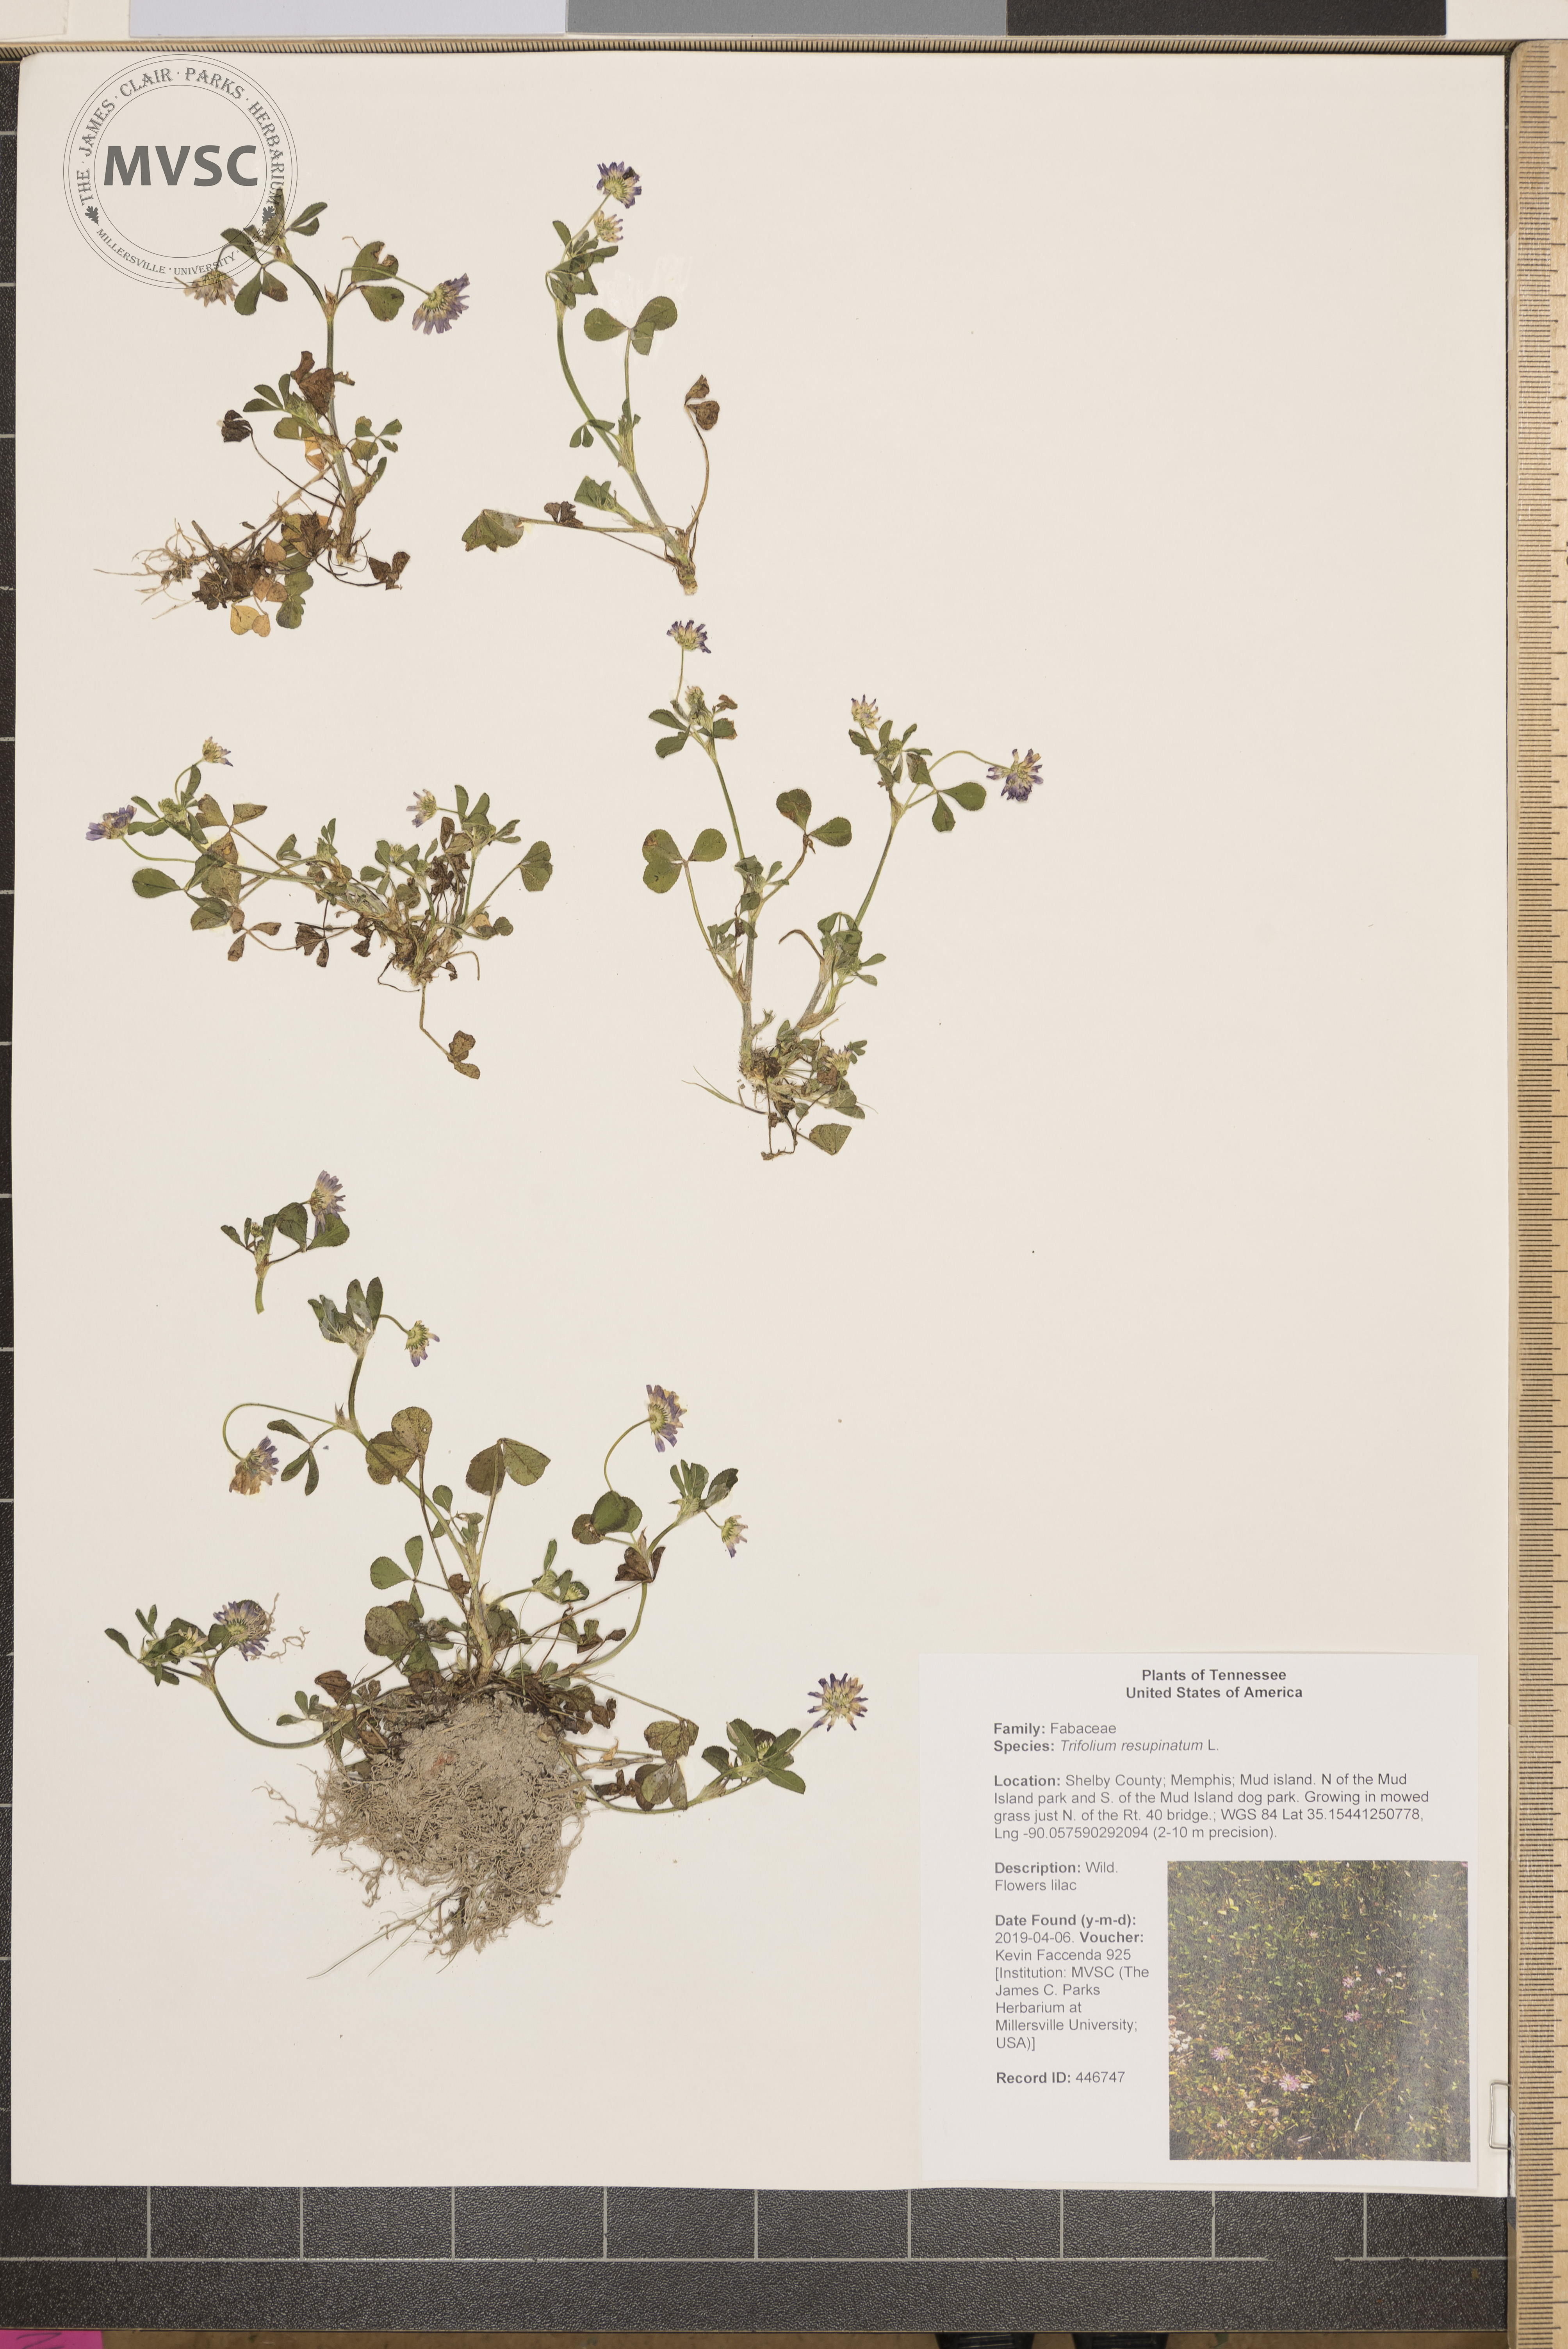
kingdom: Plantae
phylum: Tracheophyta
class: Magnoliopsida
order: Fabales
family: Fabaceae
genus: Trifolium
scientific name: Trifolium resupinatum
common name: Reversed clover
